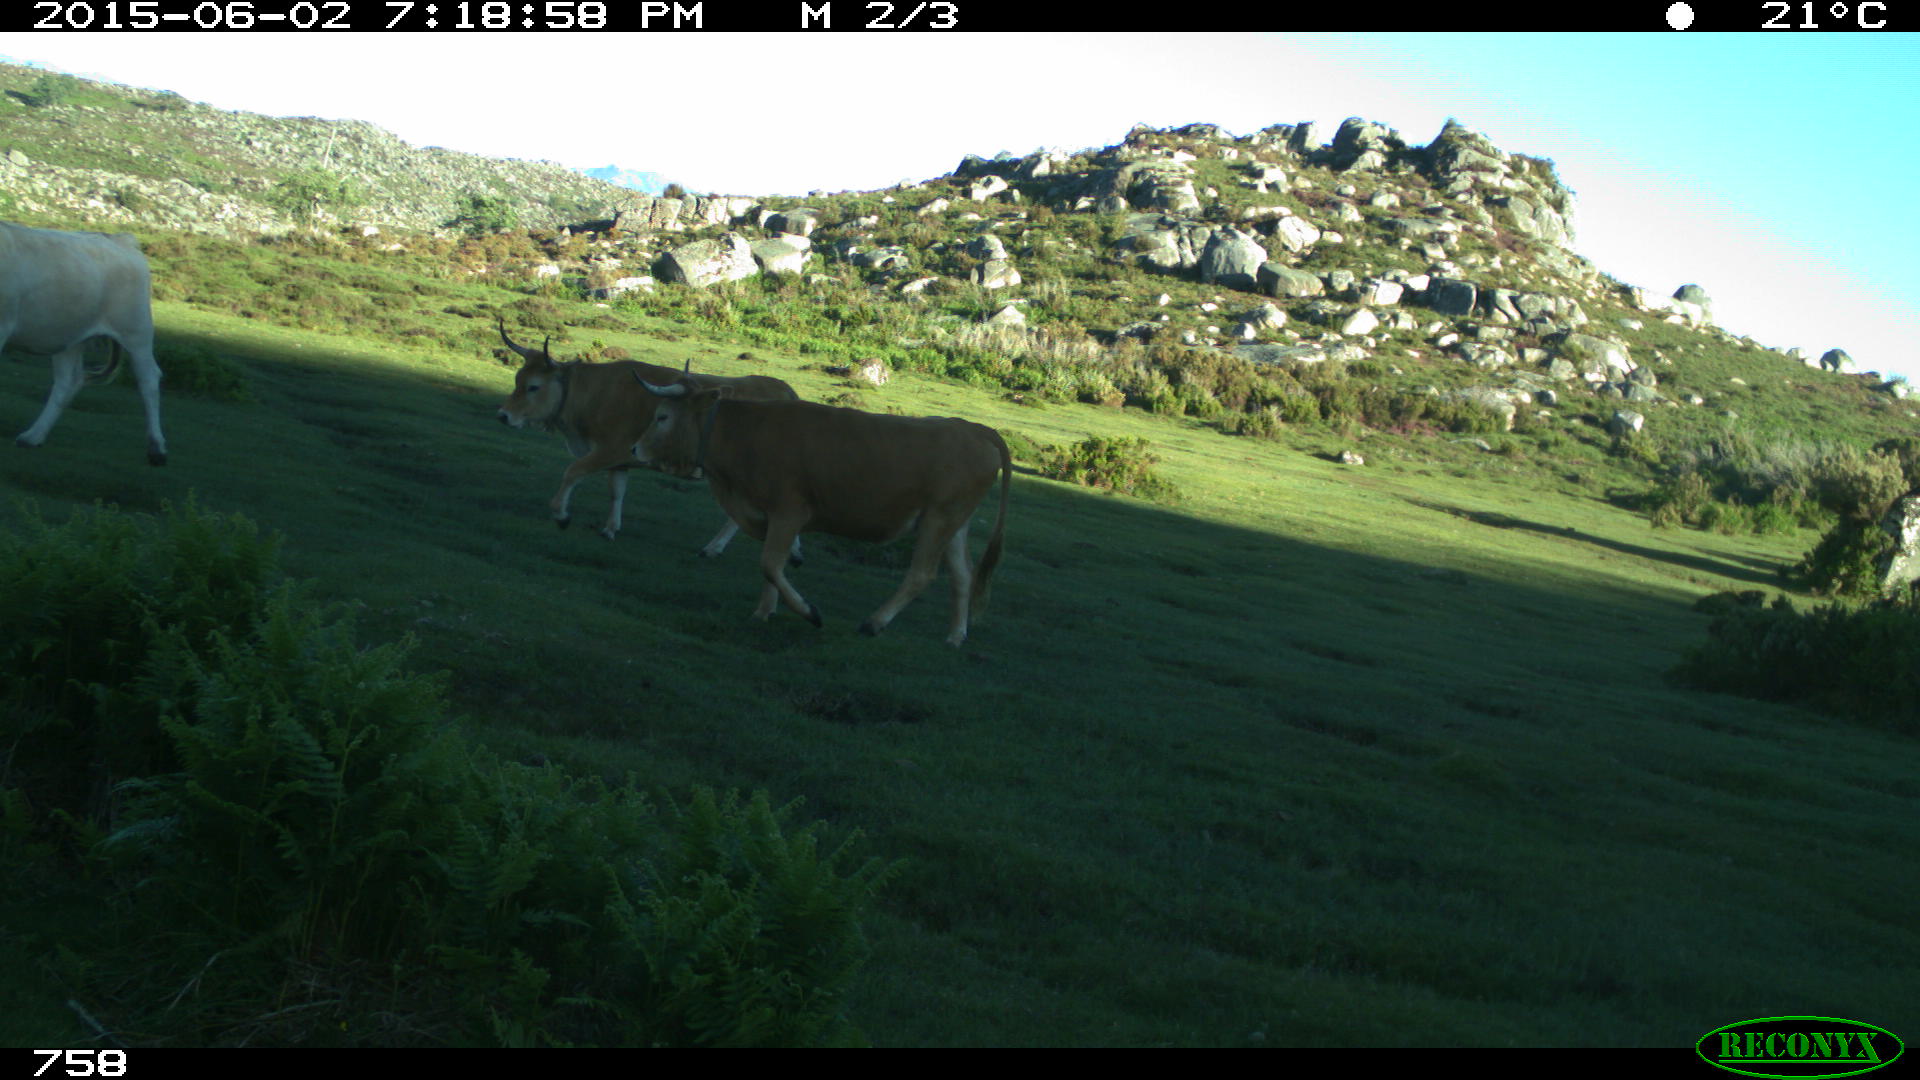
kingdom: Animalia
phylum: Chordata
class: Mammalia
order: Artiodactyla
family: Bovidae
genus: Bos
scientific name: Bos taurus
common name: Domesticated cattle
